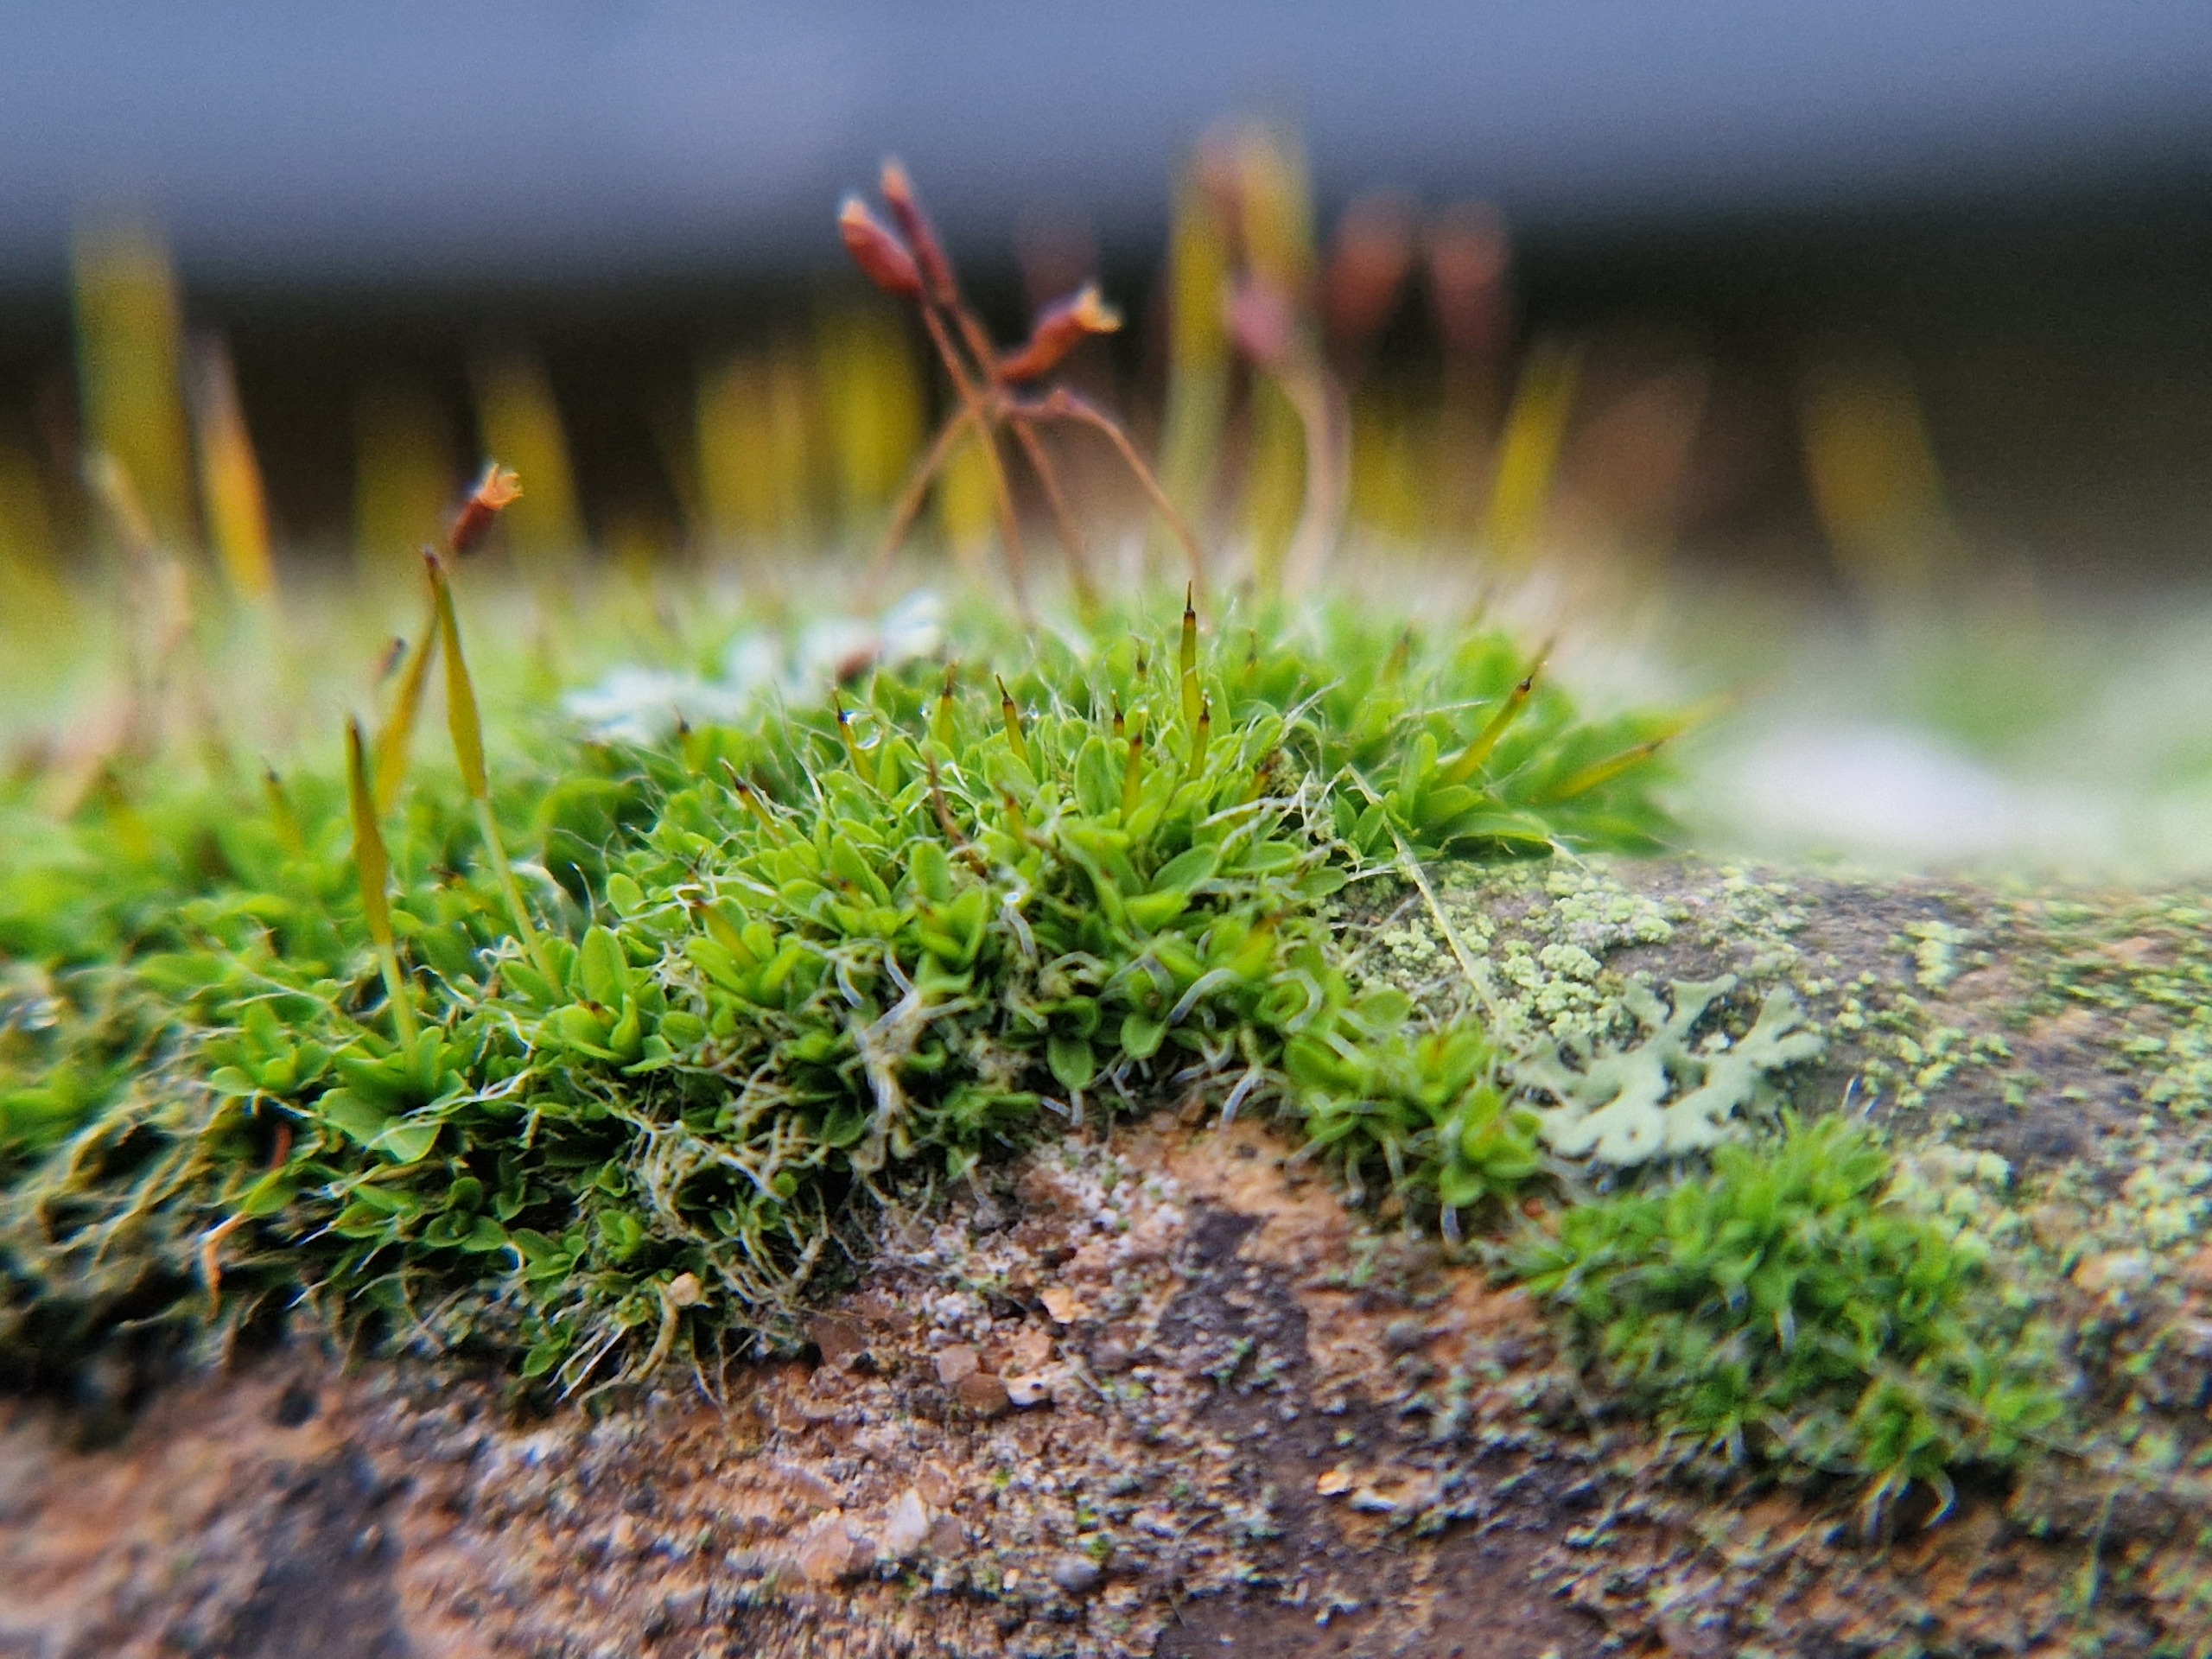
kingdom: Plantae
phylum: Bryophyta
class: Bryopsida
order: Pottiales
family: Pottiaceae
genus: Tortula
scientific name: Tortula muralis
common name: Mur-snotand
